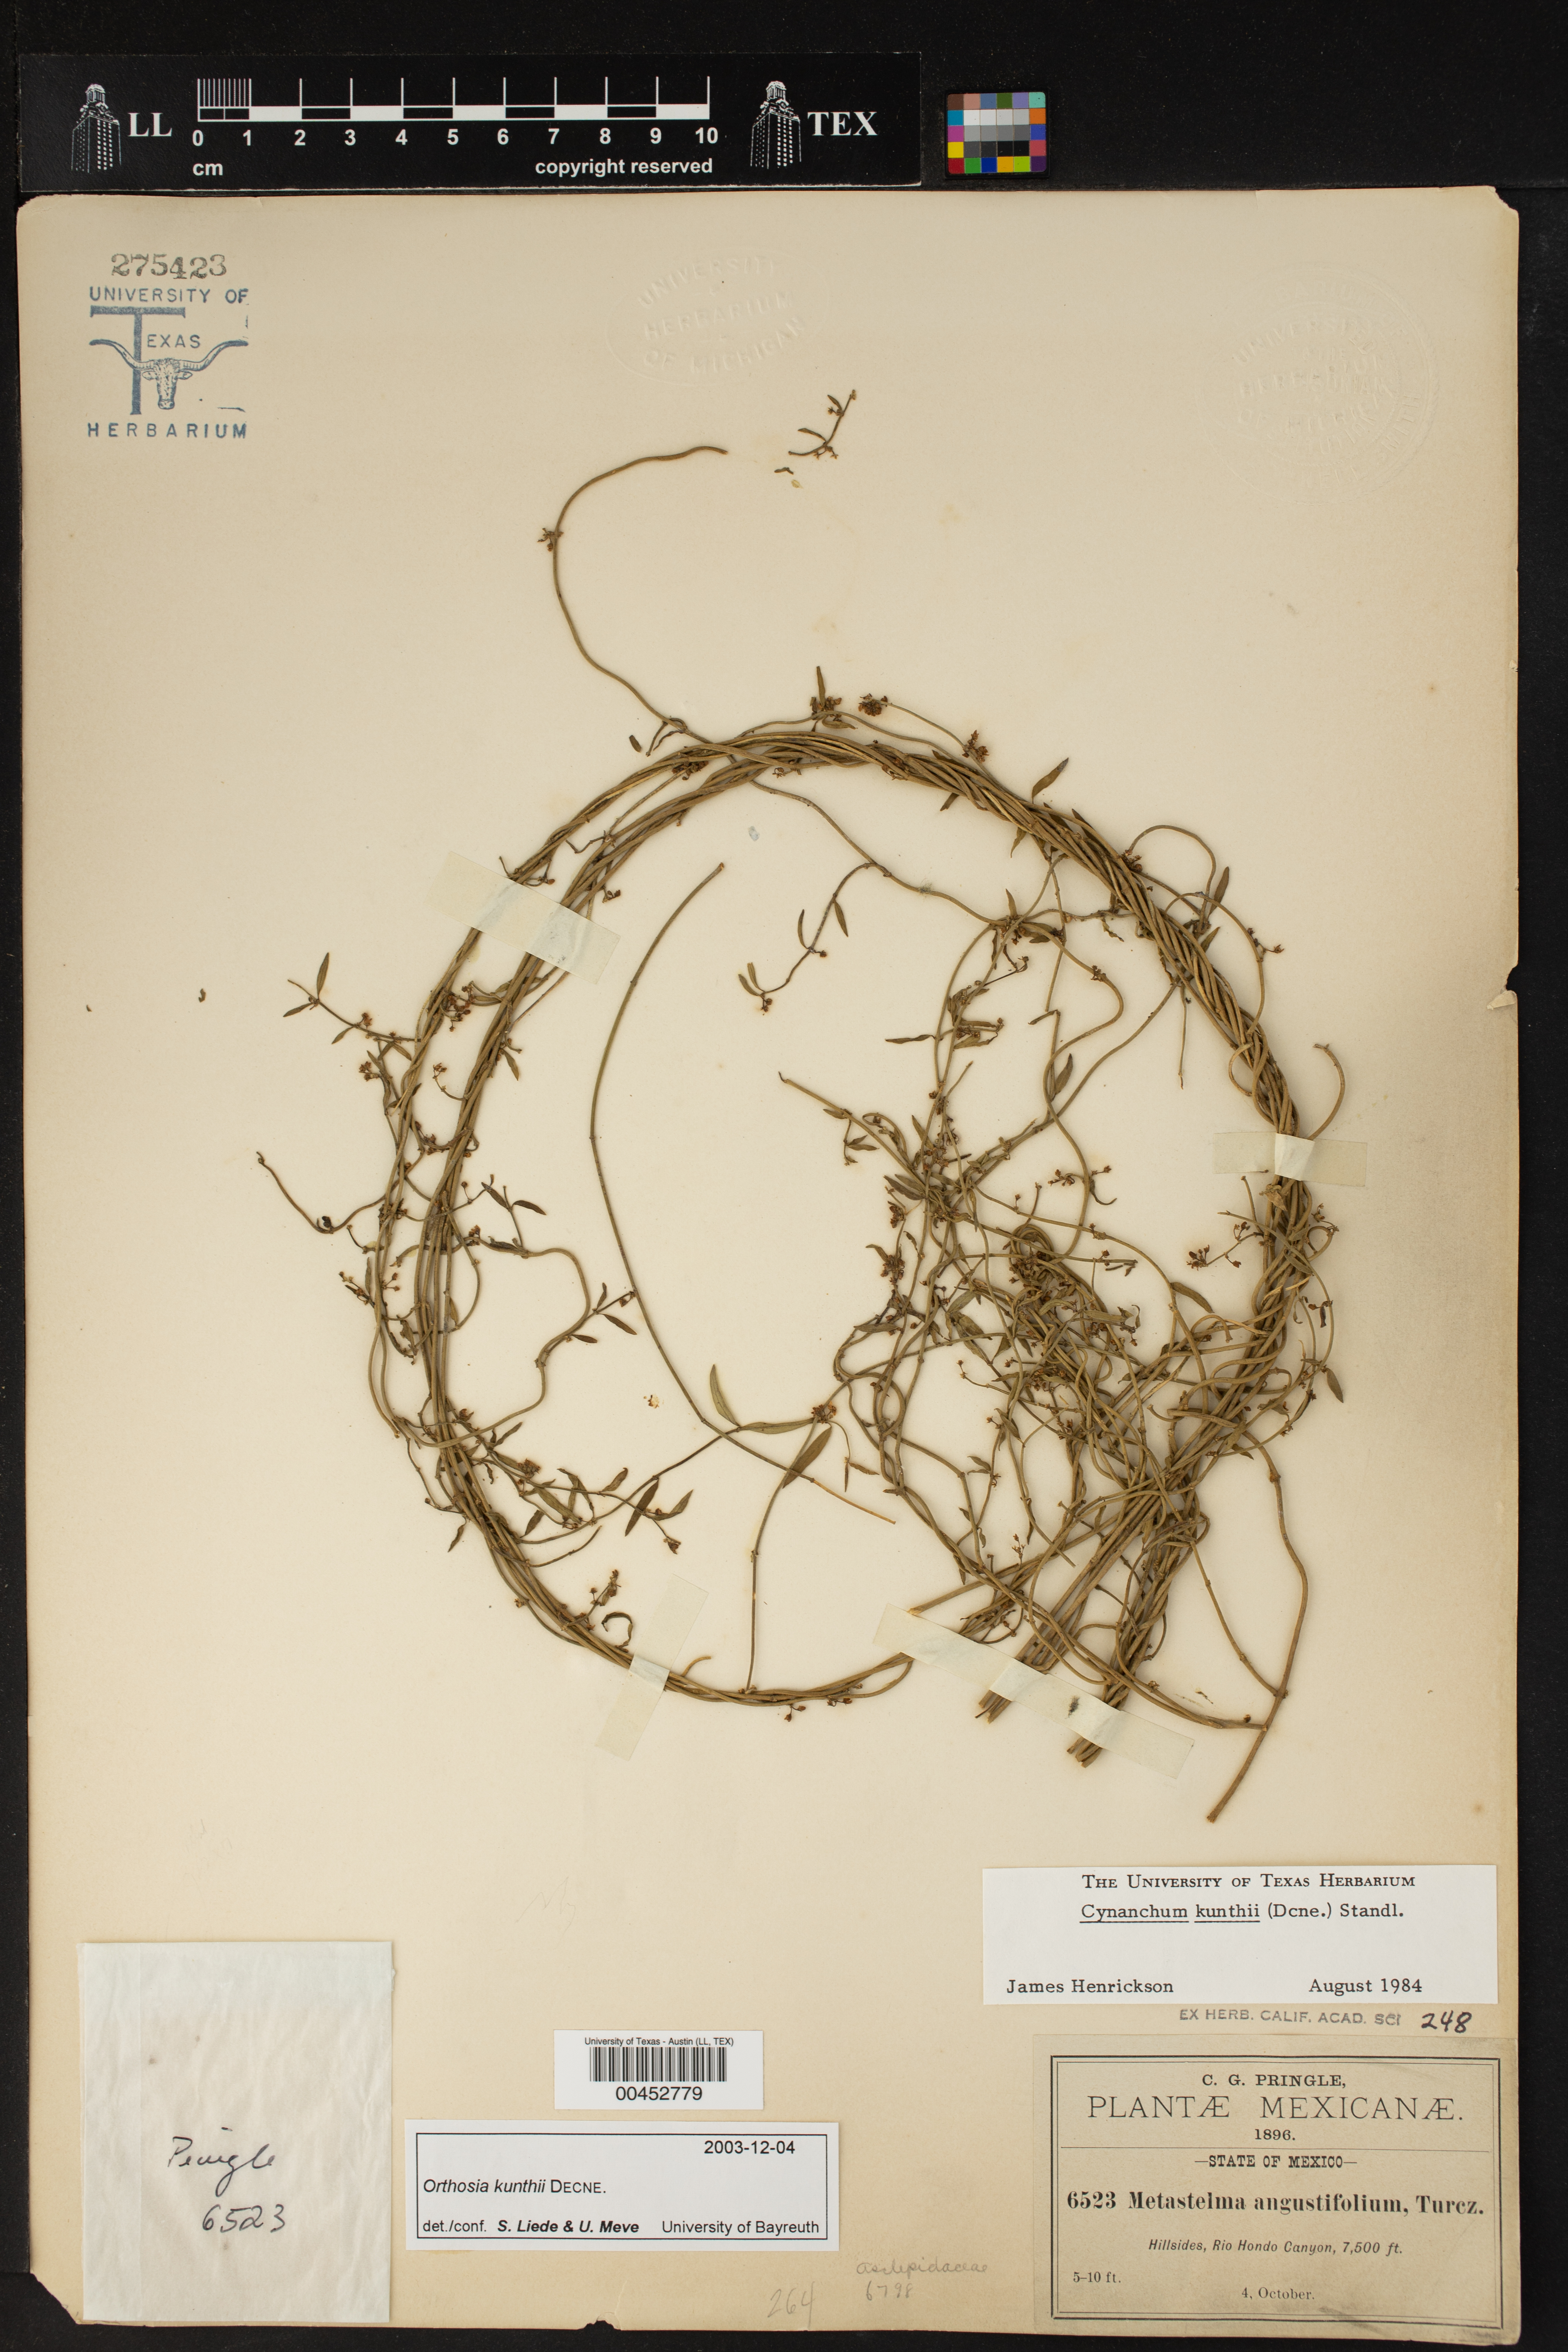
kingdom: Plantae
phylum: Tracheophyta
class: Magnoliopsida
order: Gentianales
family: Apocynaceae
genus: Orthosia
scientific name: Orthosia bonplandiana
